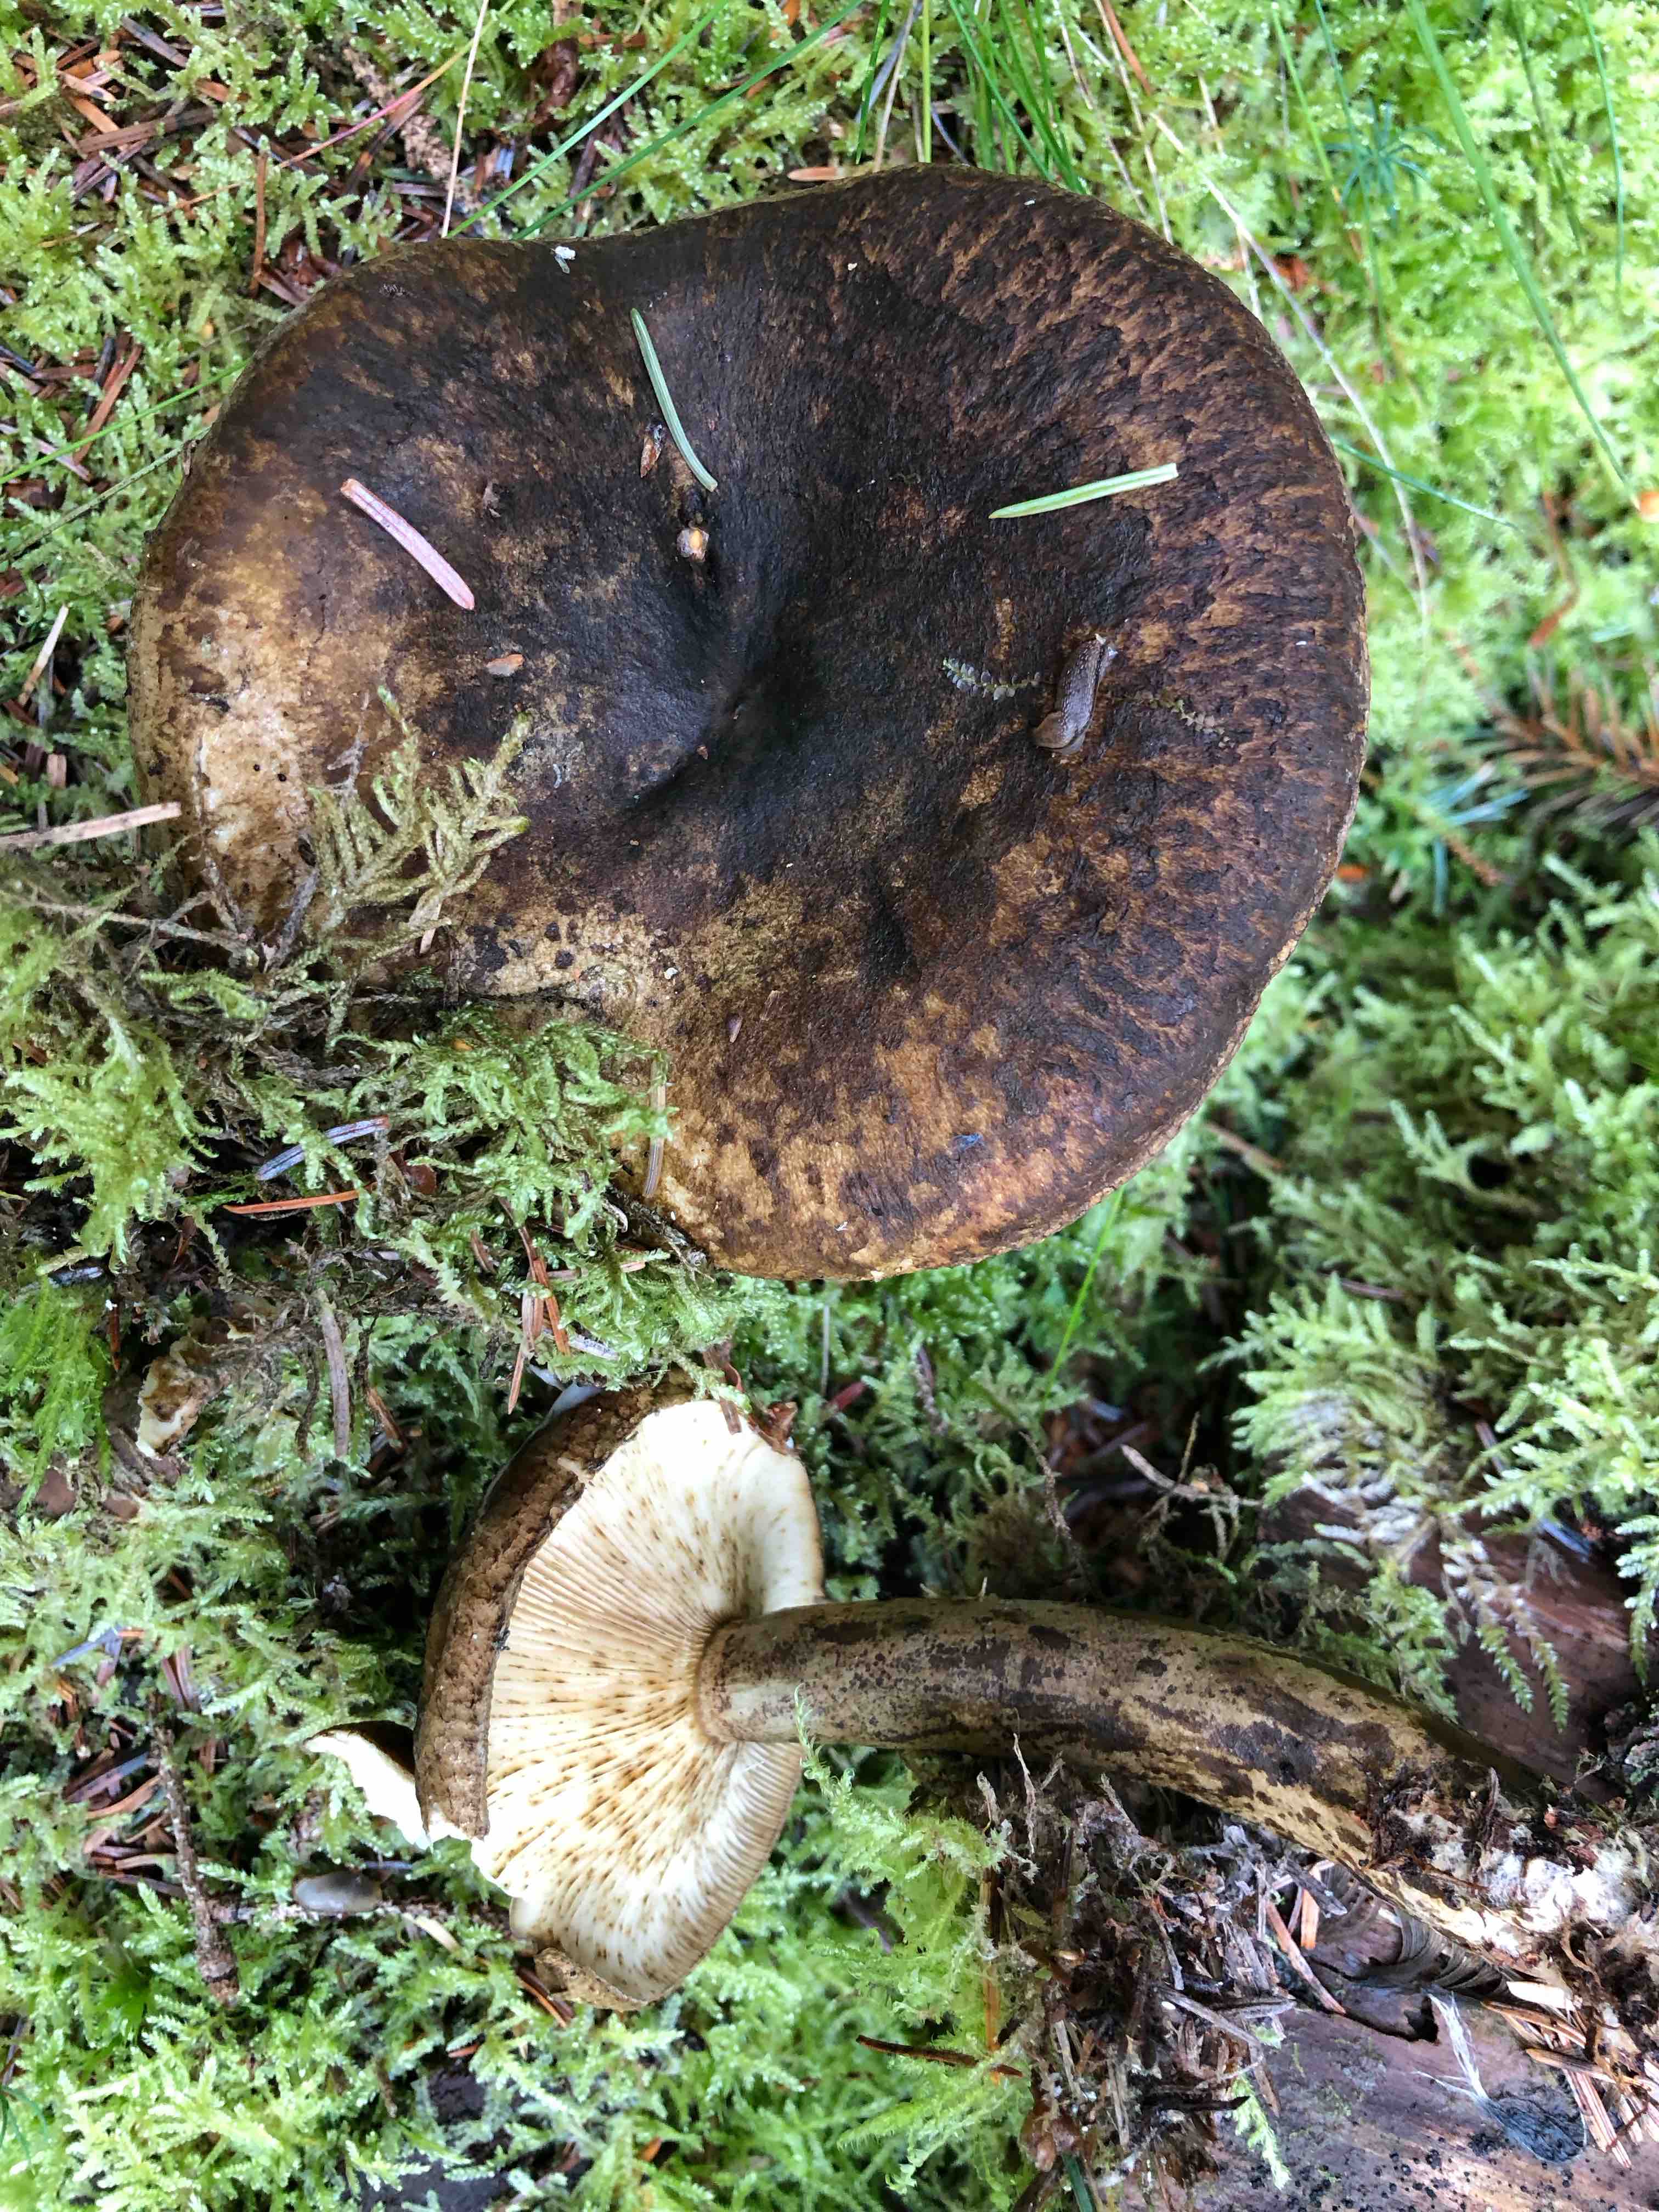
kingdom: Fungi
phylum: Basidiomycota
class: Agaricomycetes
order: Russulales
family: Russulaceae
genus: Lactarius
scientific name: Lactarius necator
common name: manddraber-mælkehat
